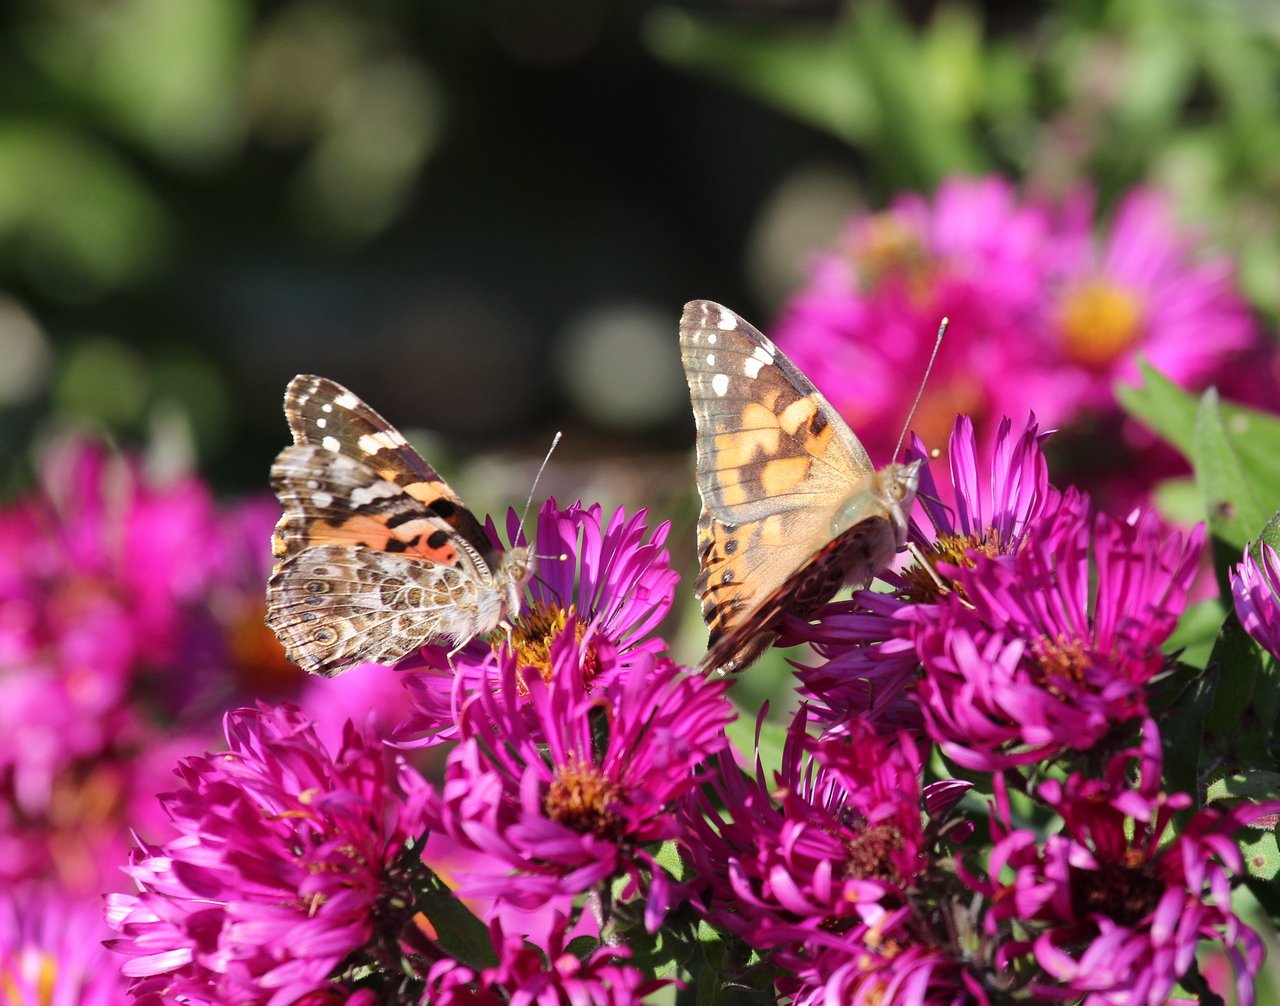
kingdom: Animalia
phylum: Arthropoda
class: Insecta
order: Lepidoptera
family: Nymphalidae
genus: Vanessa
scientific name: Vanessa cardui
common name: Painted Lady
